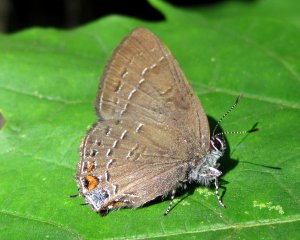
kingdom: Animalia
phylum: Arthropoda
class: Insecta
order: Lepidoptera
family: Lycaenidae
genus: Satyrium
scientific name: Satyrium calanus
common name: Banded Hairstreak
